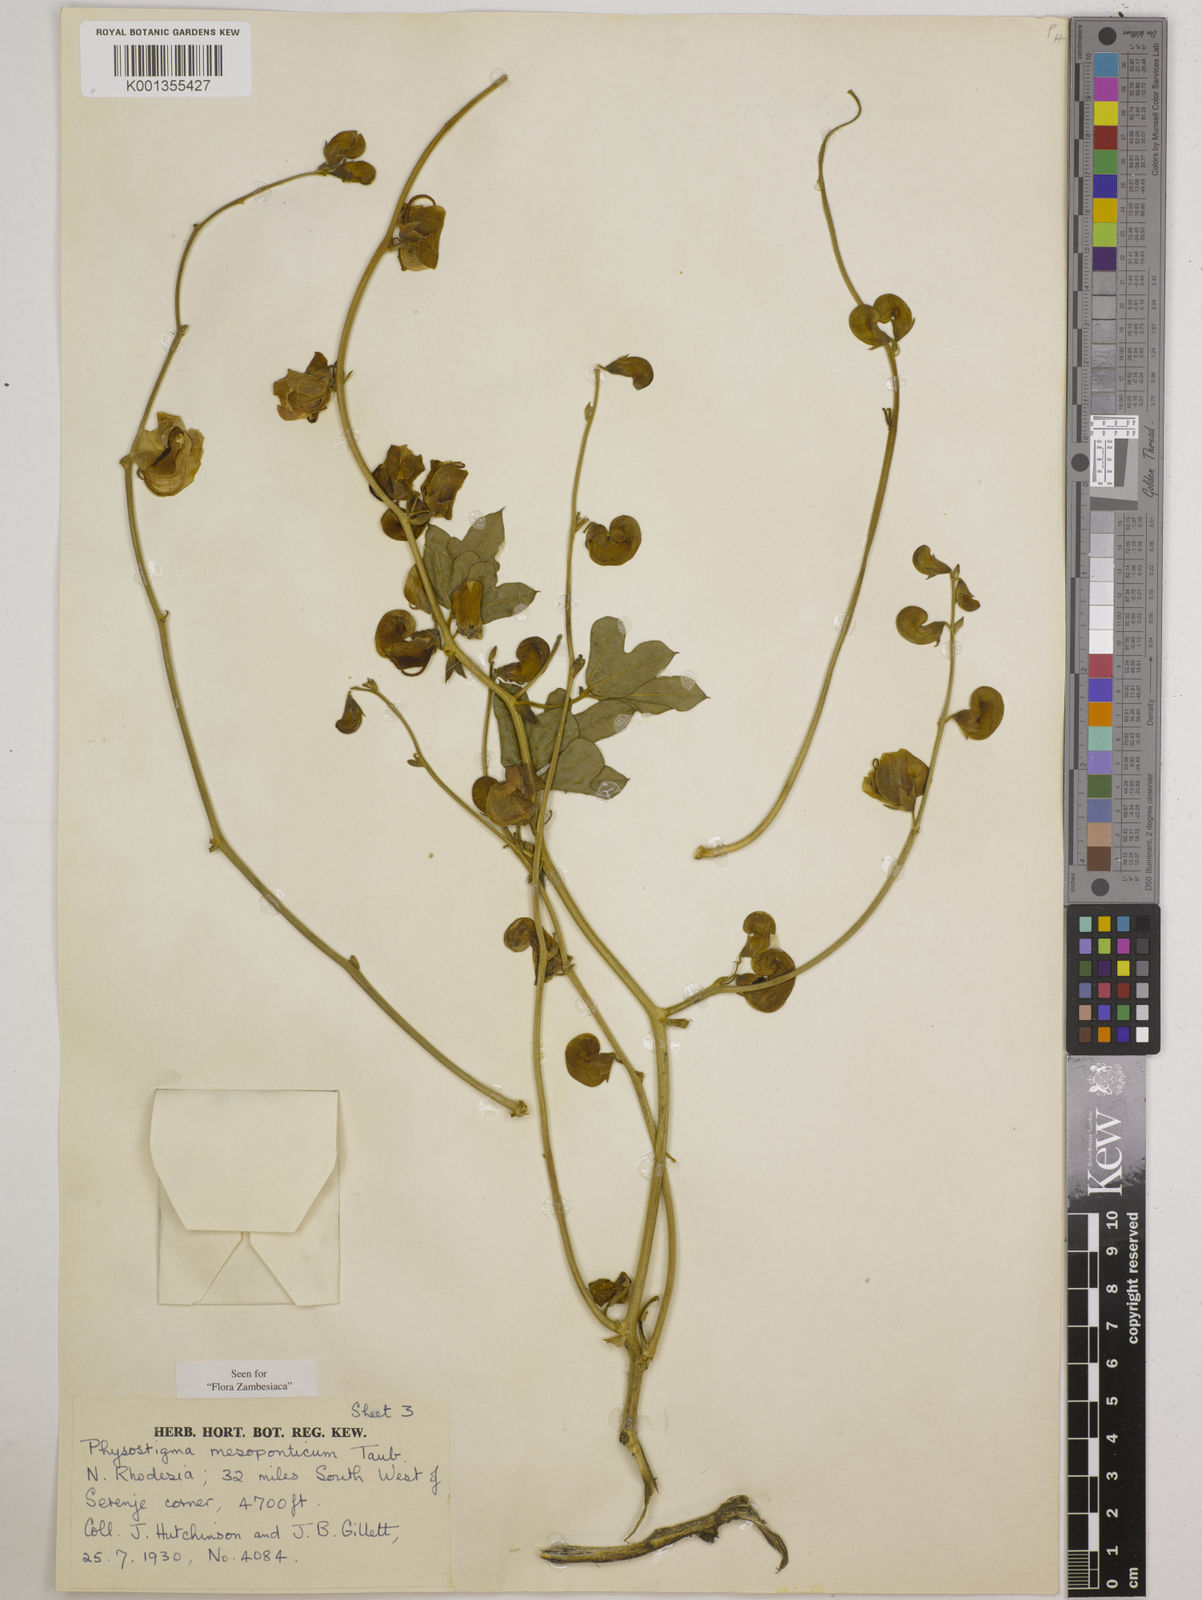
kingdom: Plantae
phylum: Tracheophyta
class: Magnoliopsida
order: Fabales
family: Fabaceae
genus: Physostigma
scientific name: Physostigma mesoponticum
